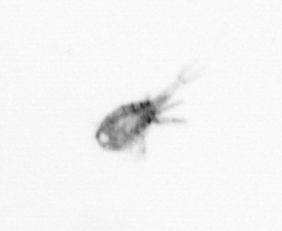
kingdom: Animalia
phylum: Arthropoda
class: Copepoda
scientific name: Copepoda
